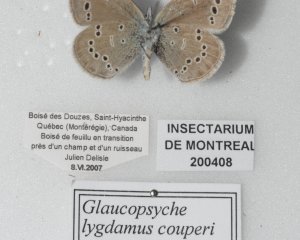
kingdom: Animalia
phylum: Arthropoda
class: Insecta
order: Lepidoptera
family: Lycaenidae
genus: Glaucopsyche
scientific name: Glaucopsyche lygdamus
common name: Silvery Blue
